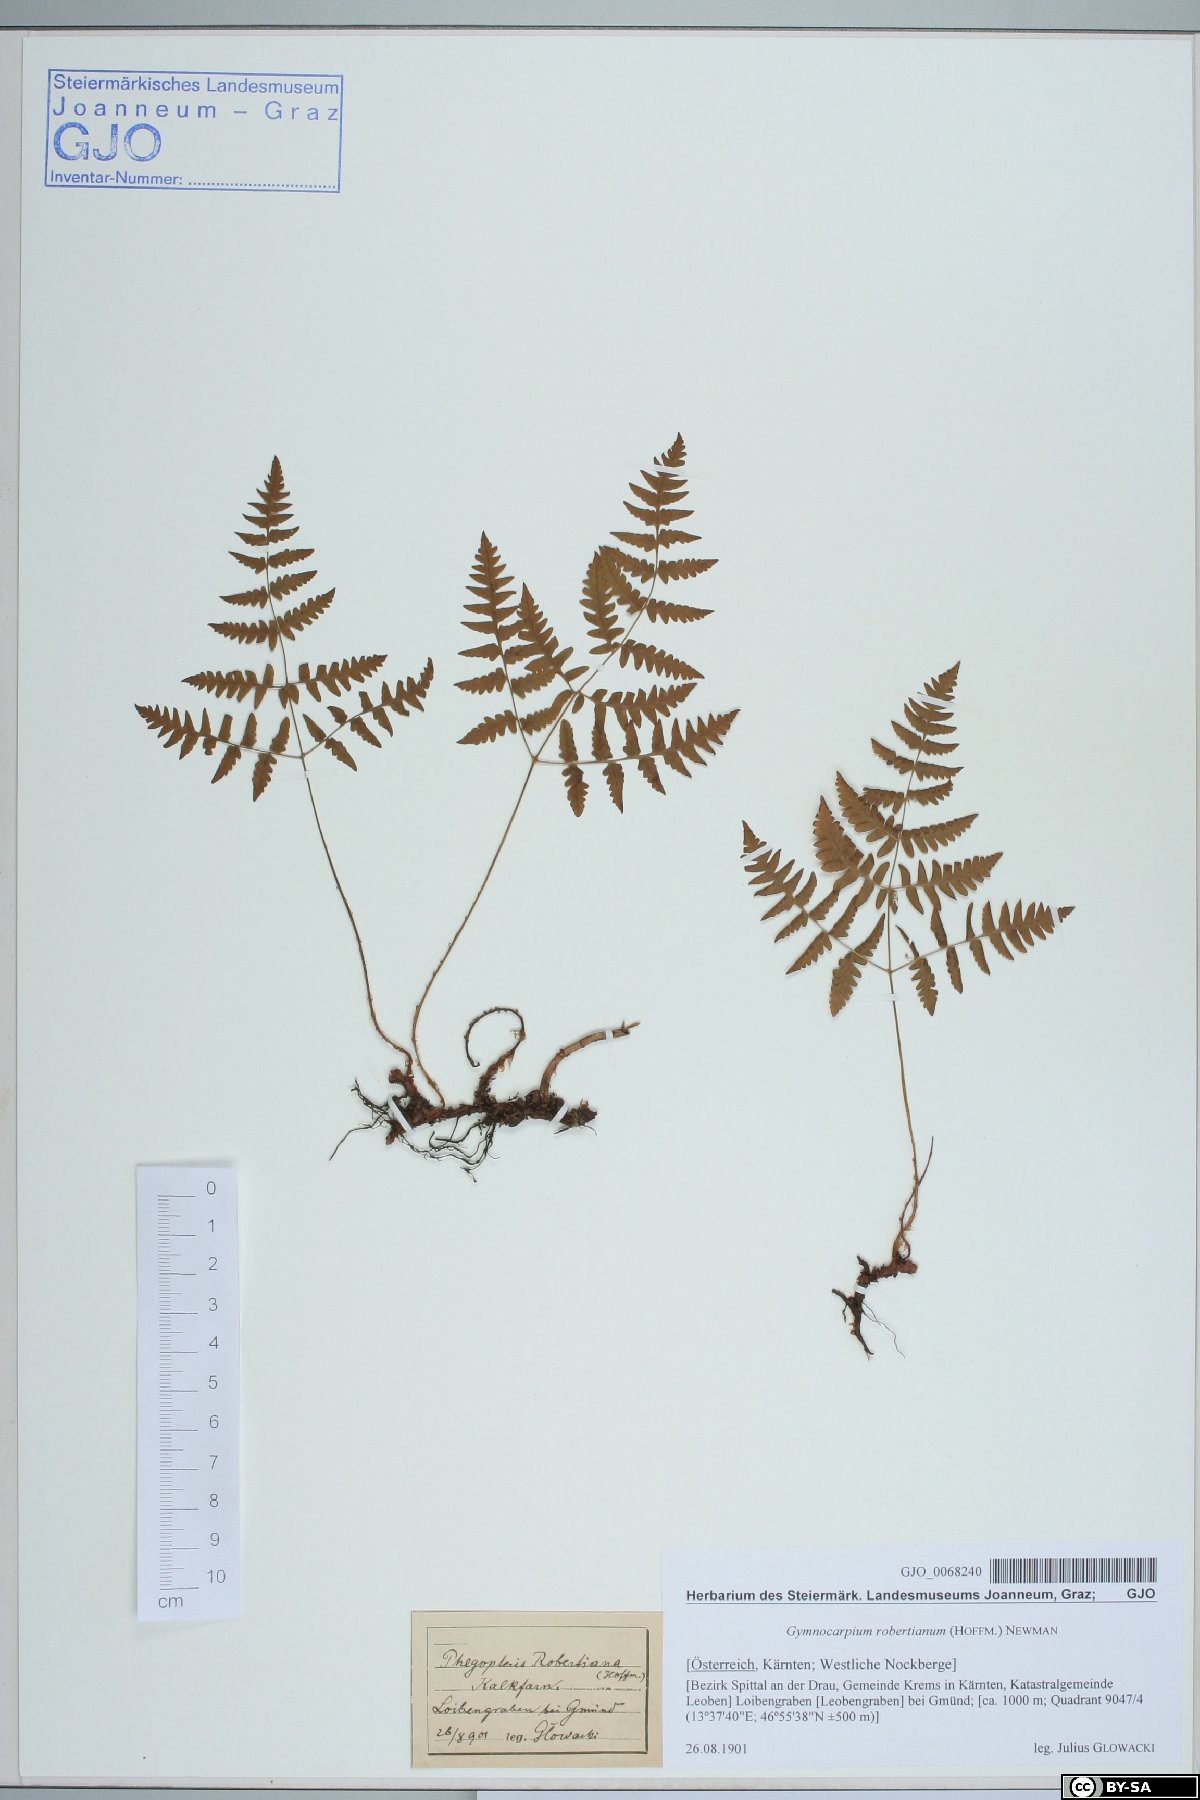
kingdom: Plantae
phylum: Tracheophyta
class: Polypodiopsida
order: Polypodiales
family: Cystopteridaceae
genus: Gymnocarpium
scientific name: Gymnocarpium robertianum
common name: Limestone fern
